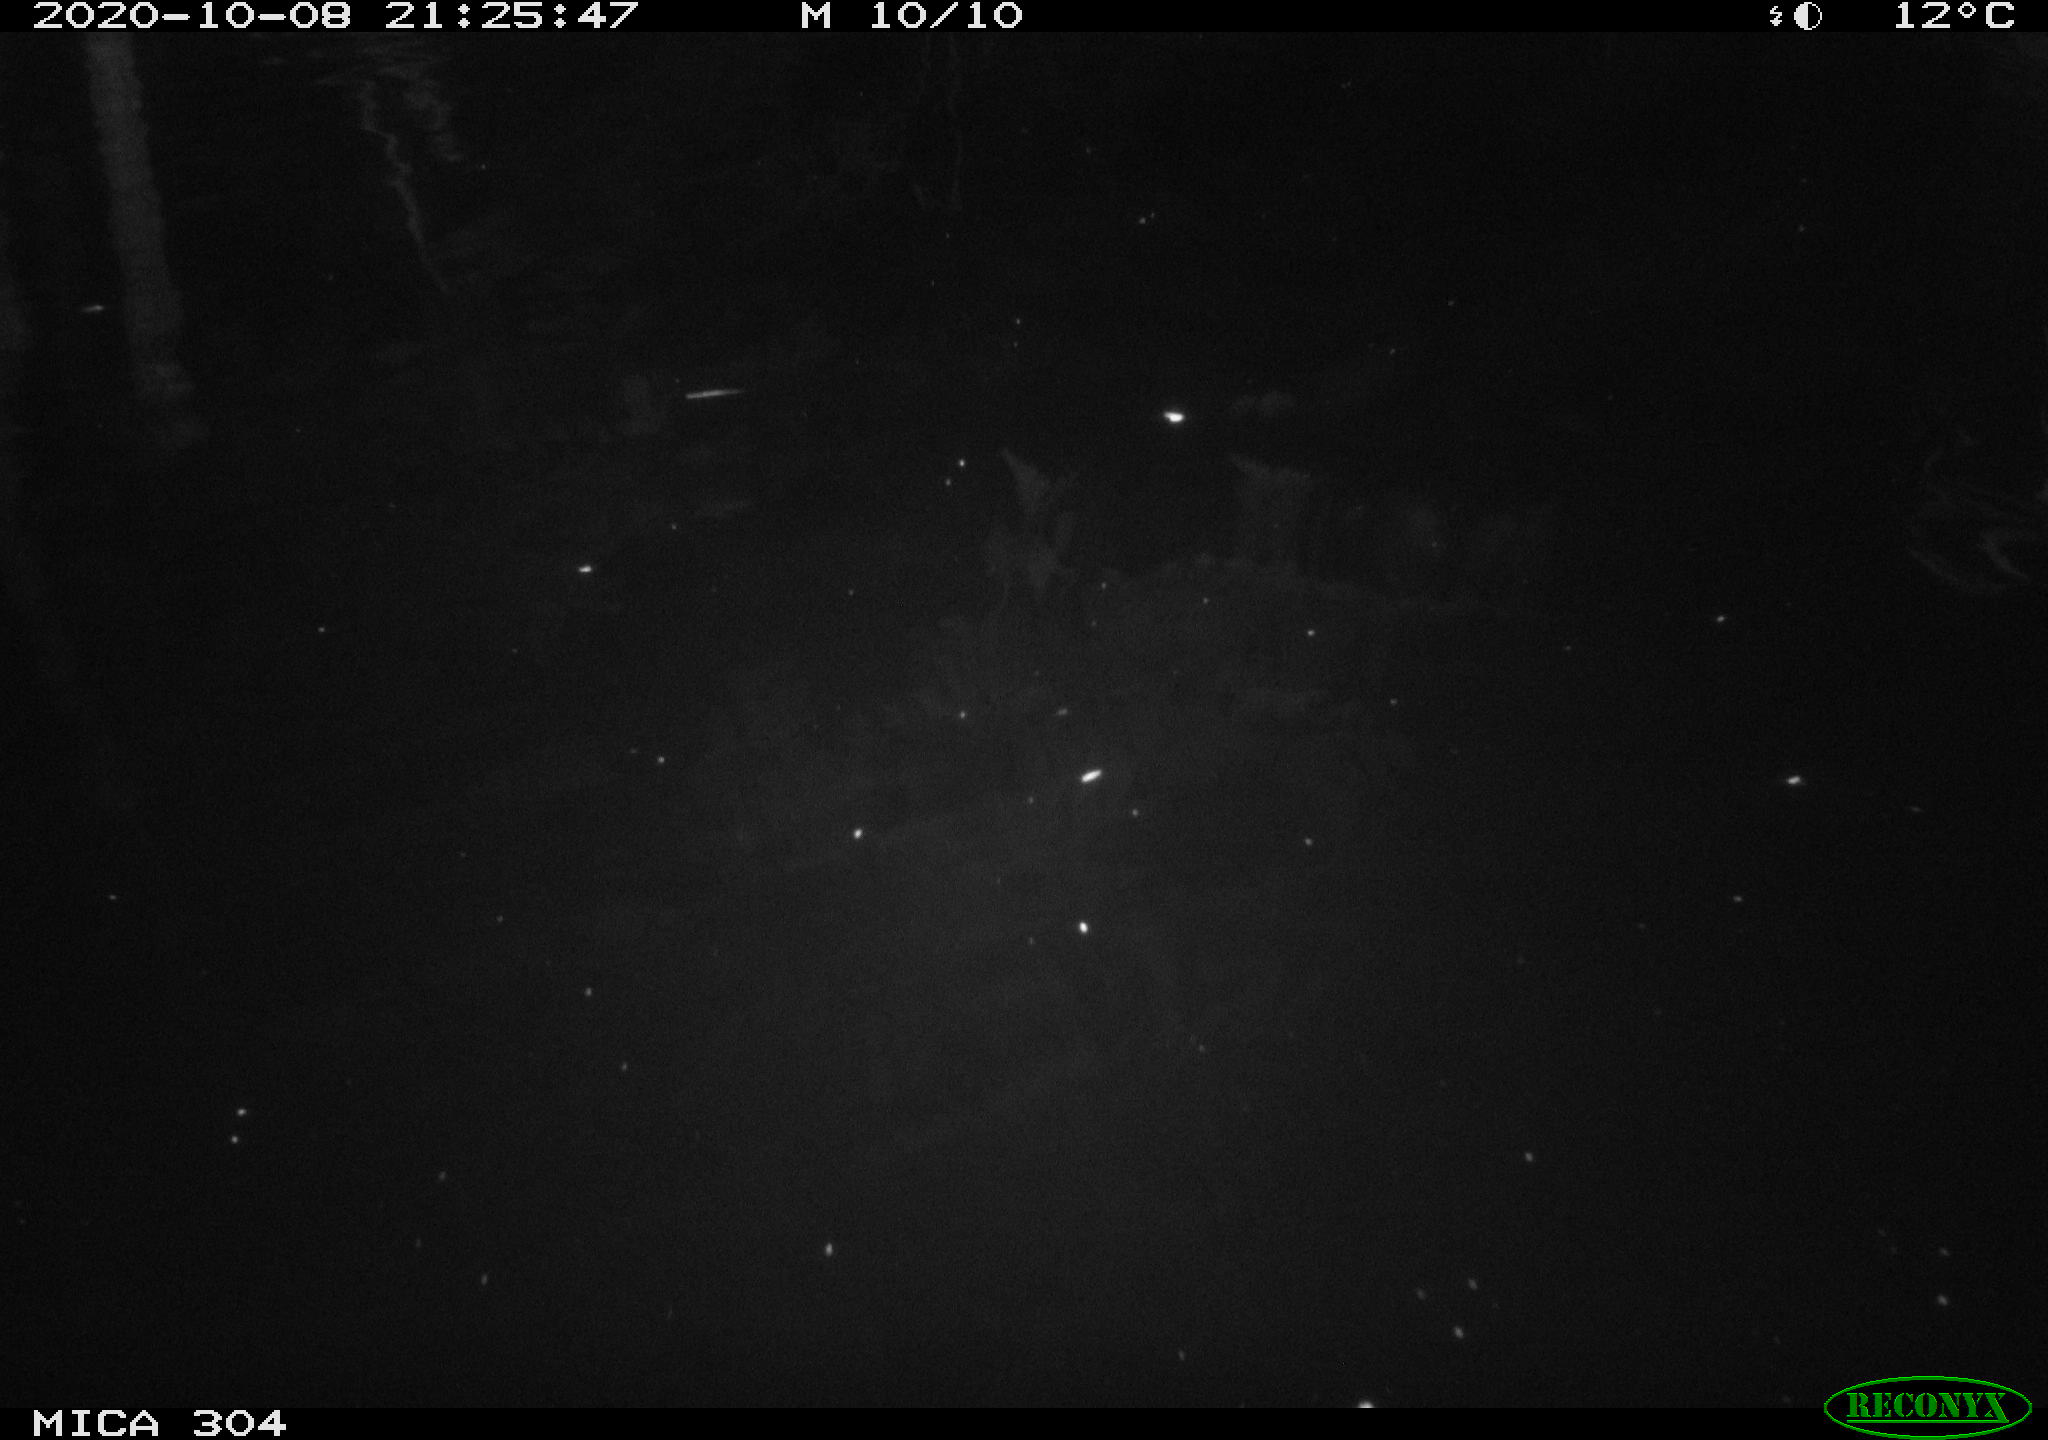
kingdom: Animalia
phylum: Chordata
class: Mammalia
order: Rodentia
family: Cricetidae
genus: Ondatra
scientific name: Ondatra zibethicus
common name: Muskrat
